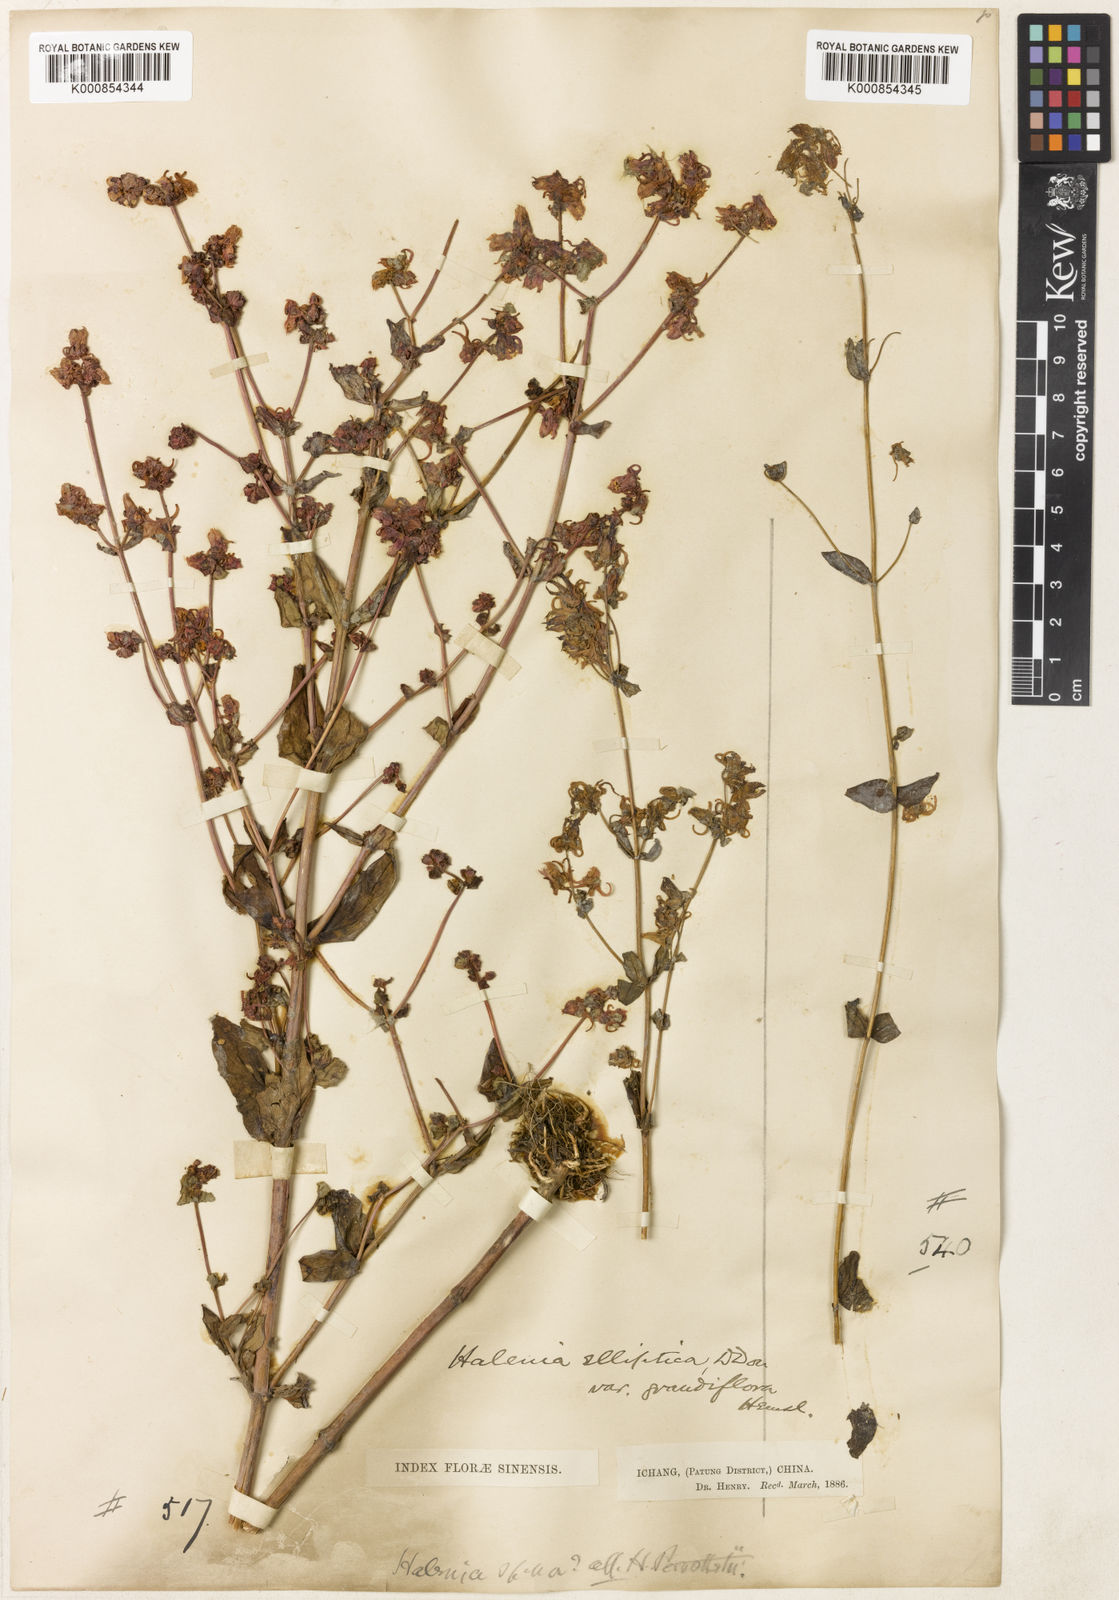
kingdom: Plantae
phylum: Tracheophyta
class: Magnoliopsida
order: Gentianales
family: Gentianaceae
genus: Halenia
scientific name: Halenia elliptica
